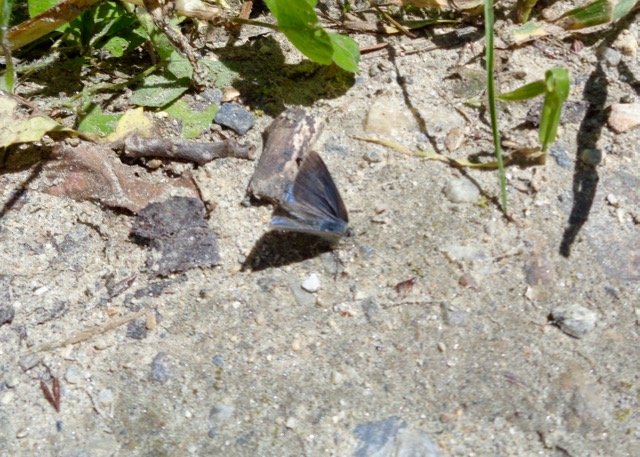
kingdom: Animalia
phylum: Arthropoda
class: Insecta
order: Lepidoptera
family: Lycaenidae
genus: Erora
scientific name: Erora laeta
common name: Early Hairstreak
